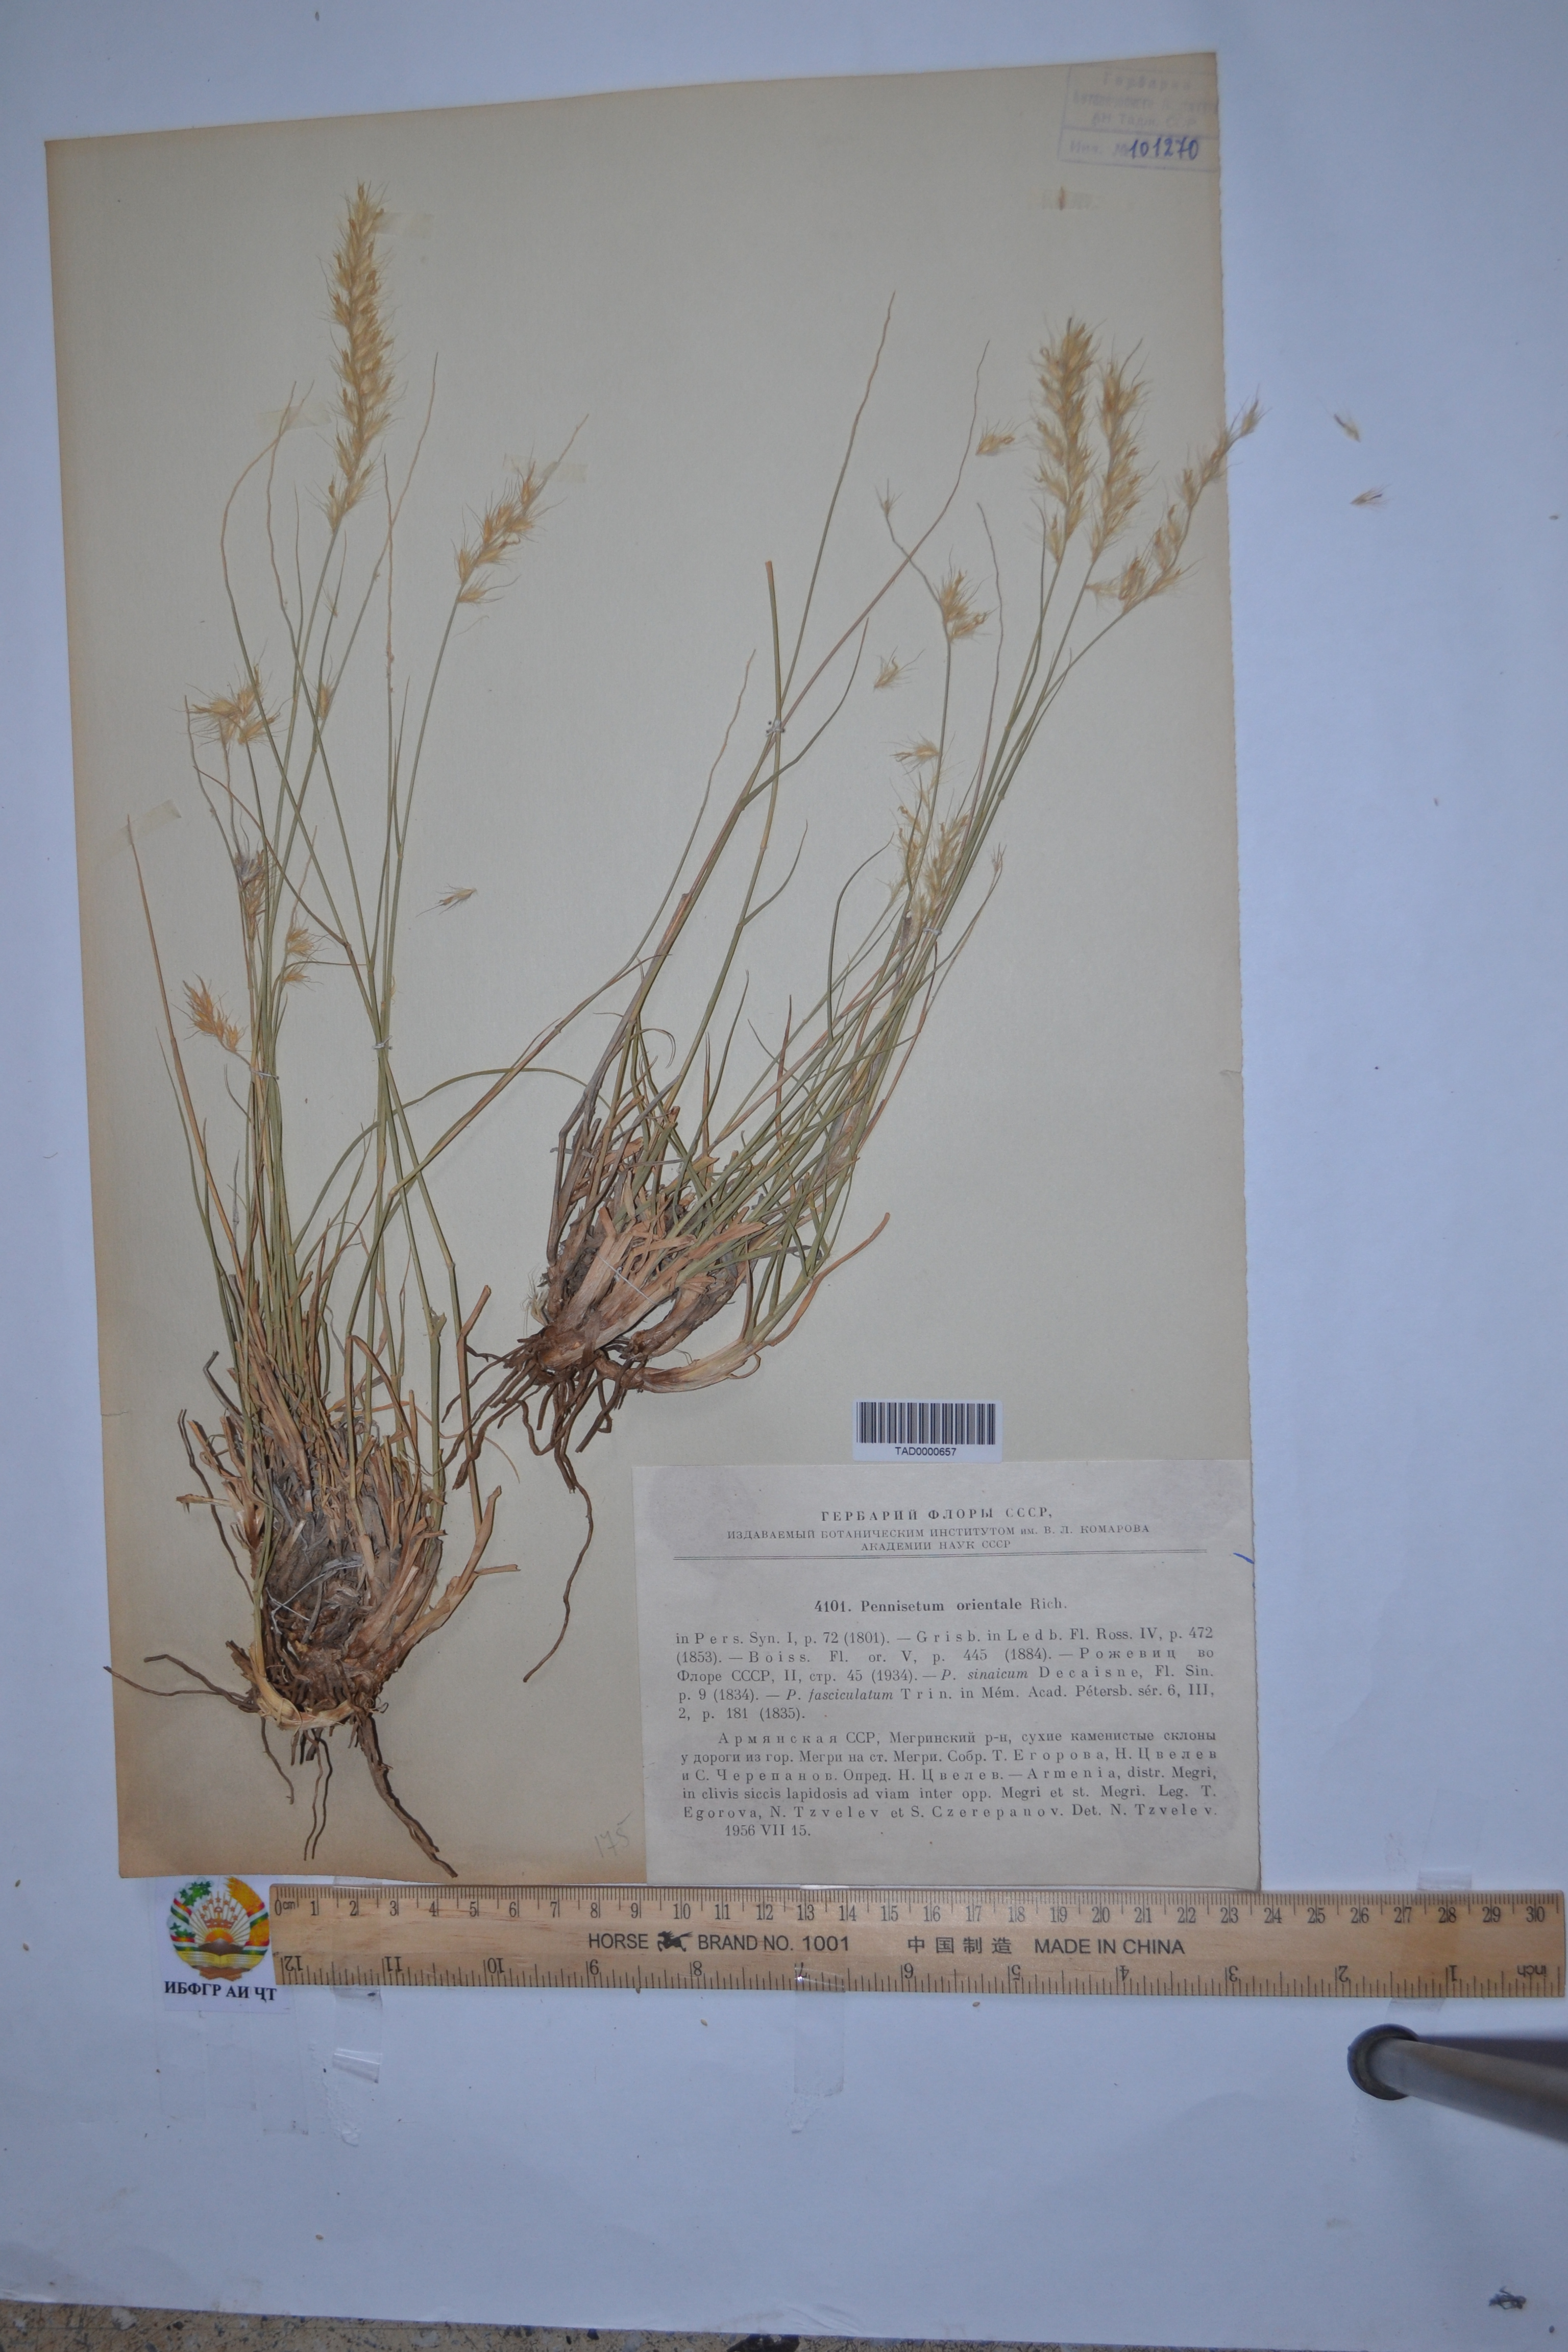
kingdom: Plantae
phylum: Tracheophyta
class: Liliopsida
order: Poales
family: Poaceae
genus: Cenchrus
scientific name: Cenchrus orientalis
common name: Oriental fountain grass
